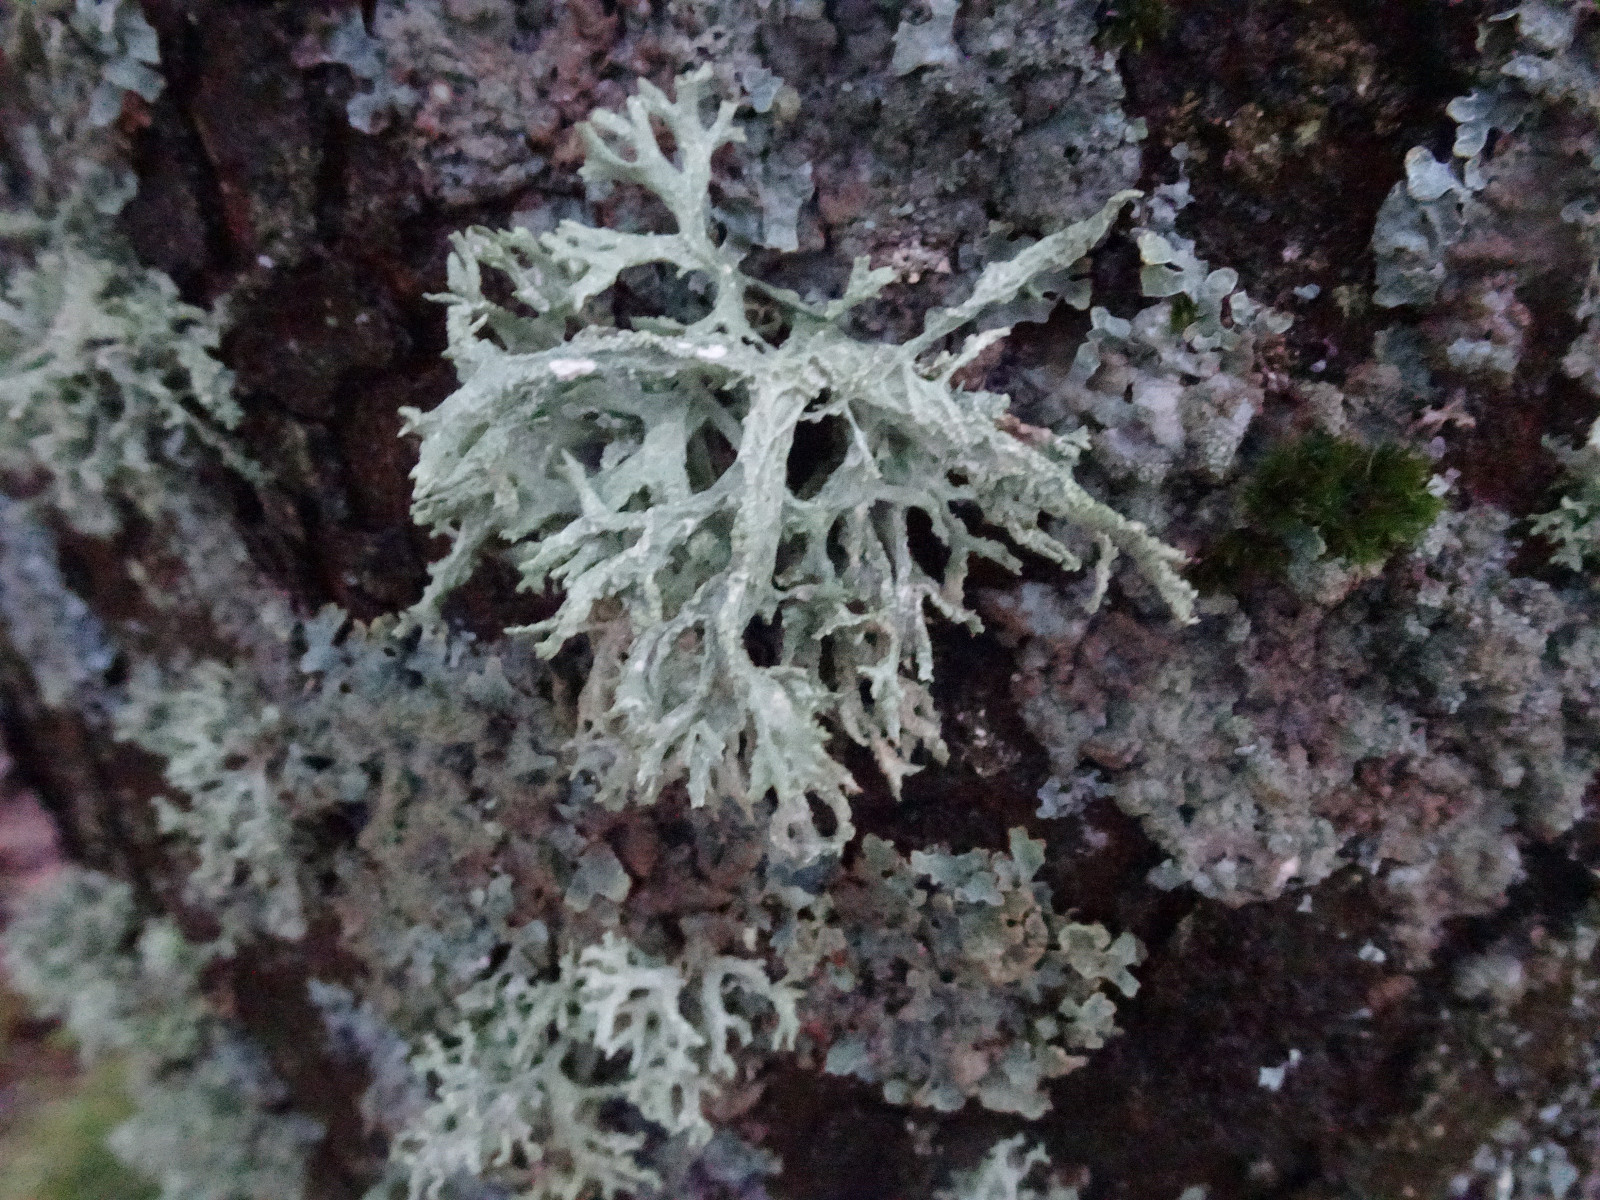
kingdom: Fungi
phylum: Ascomycota
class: Lecanoromycetes
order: Lecanorales
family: Parmeliaceae
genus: Evernia
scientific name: Evernia prunastri
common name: almindelig slåenlav
